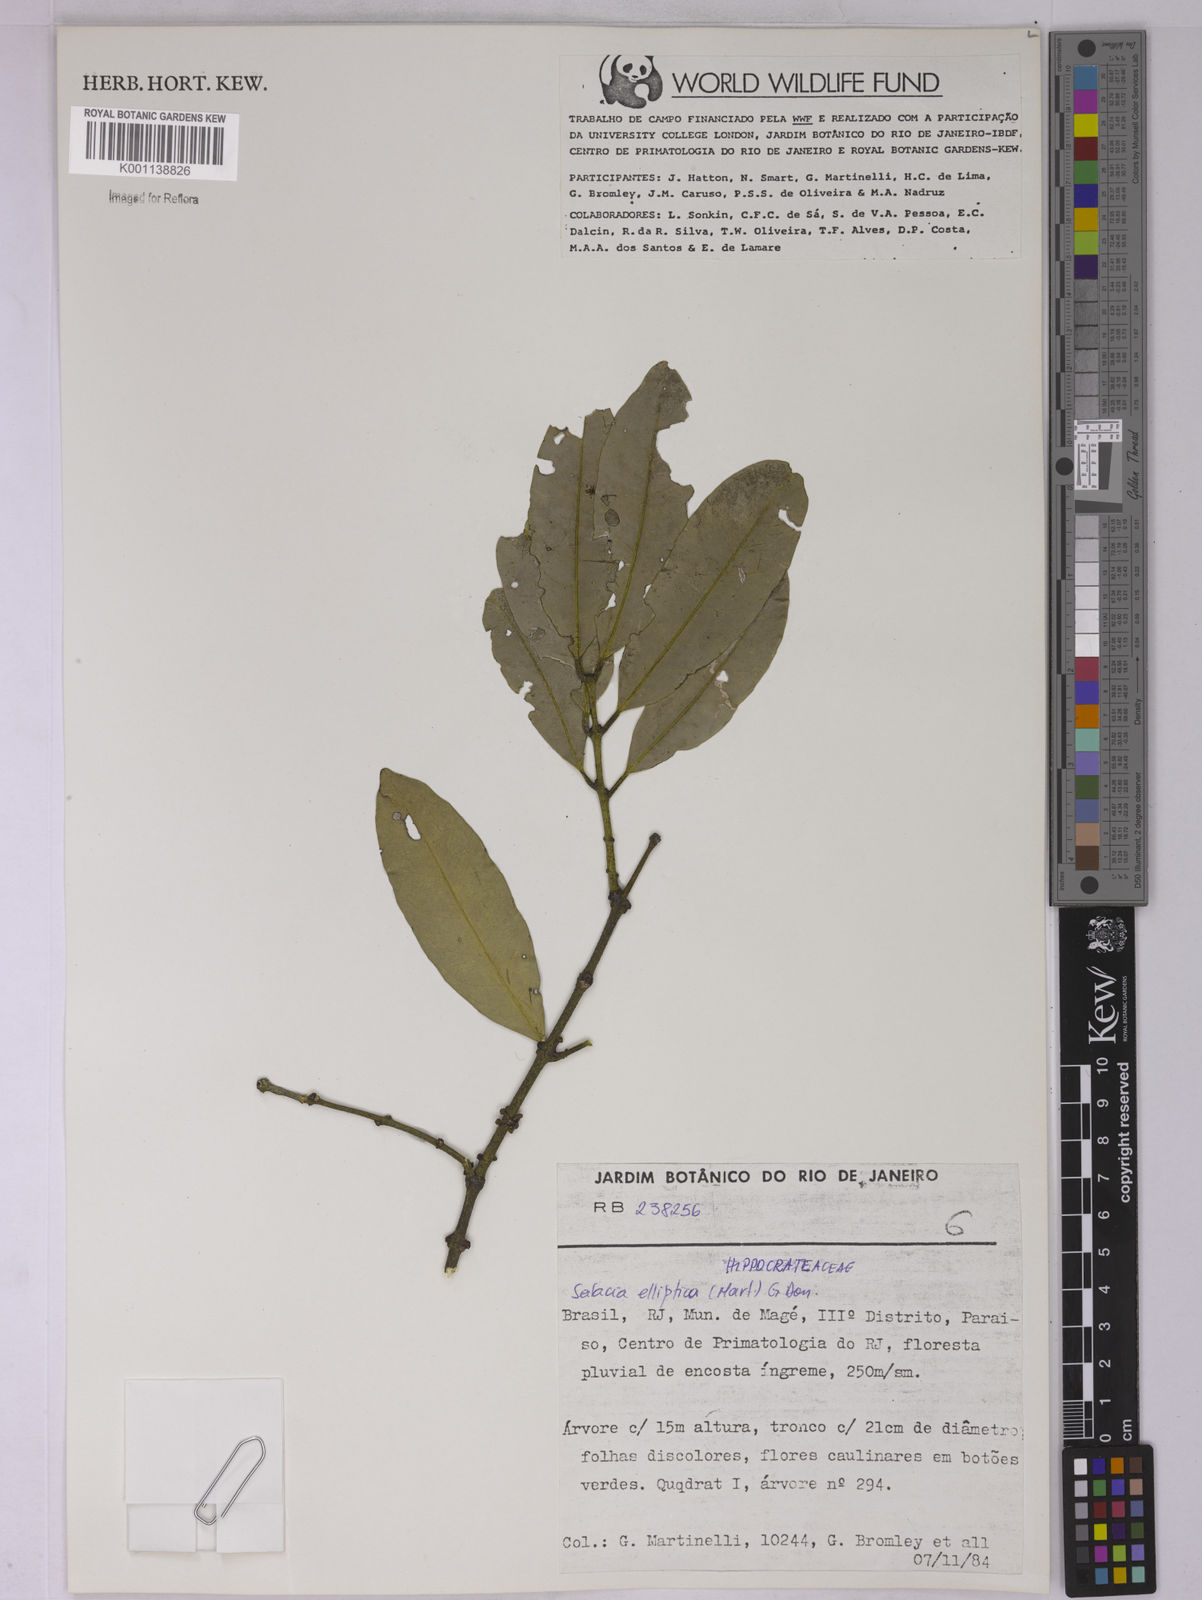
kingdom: Plantae
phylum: Tracheophyta
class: Magnoliopsida
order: Celastrales
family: Celastraceae
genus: Salacia
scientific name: Salacia elliptica
